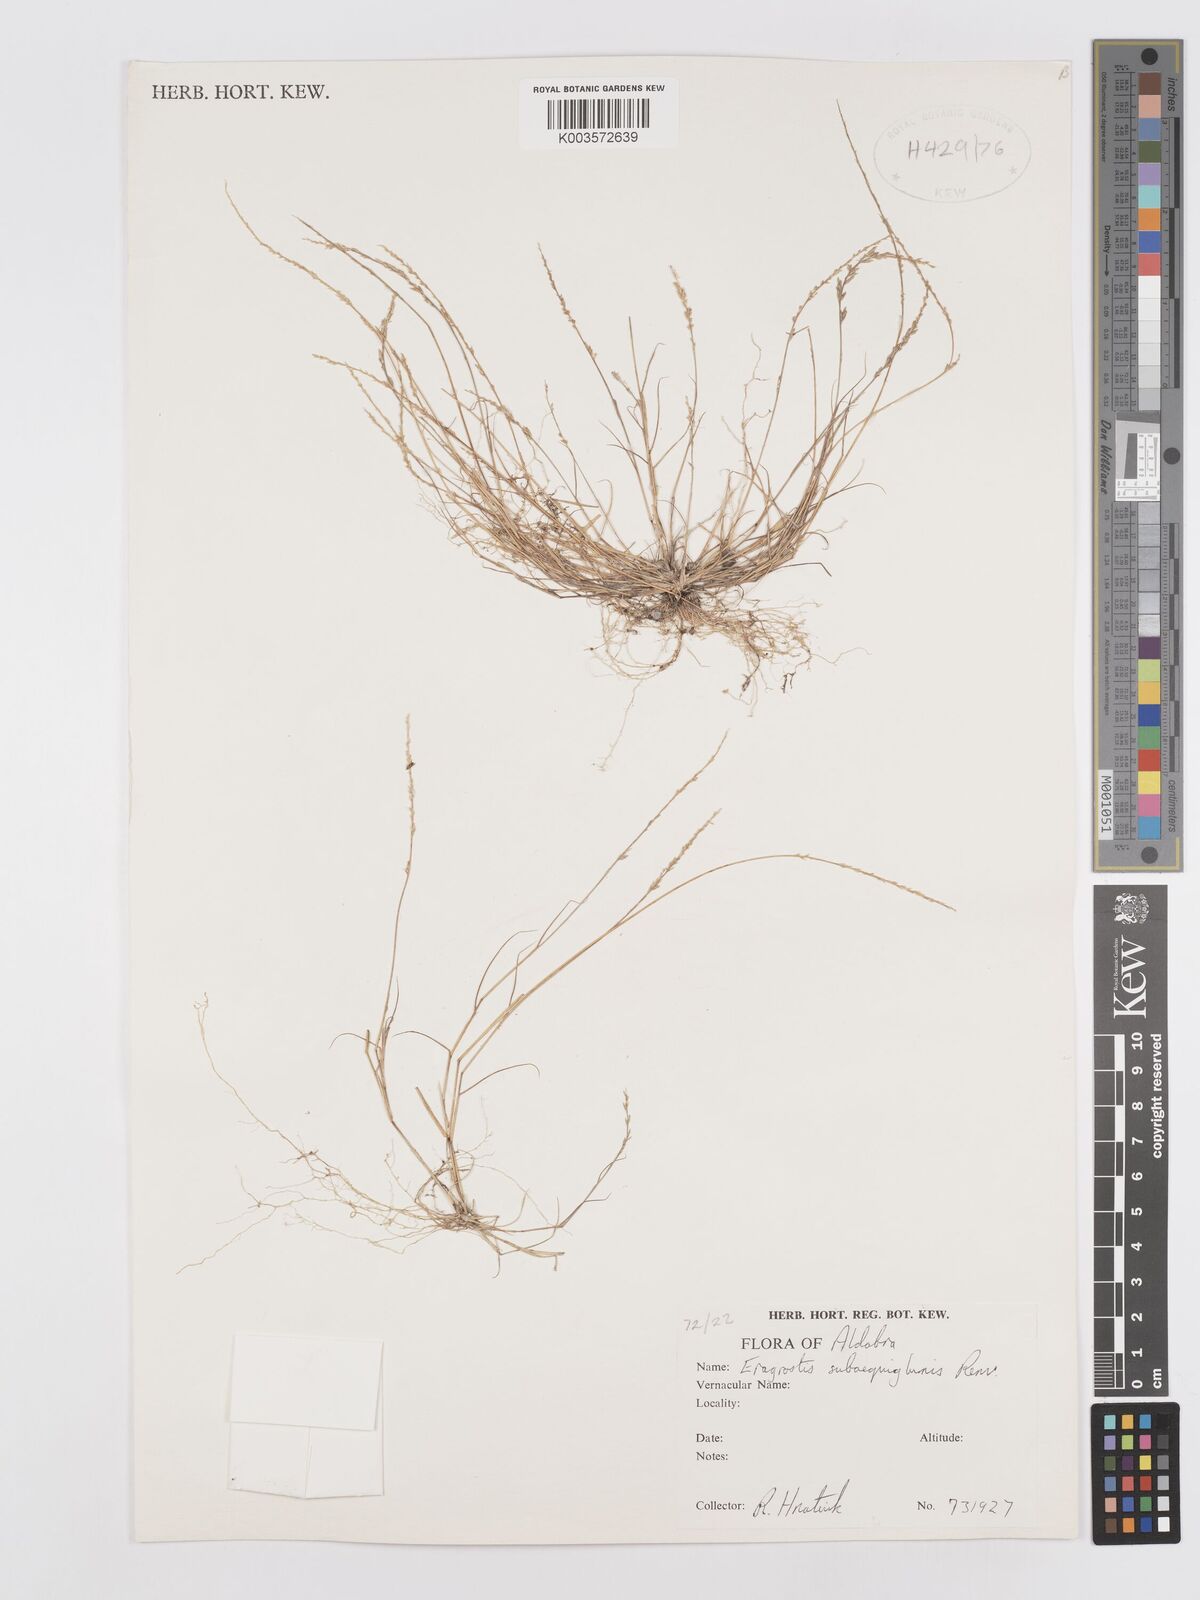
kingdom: Plantae
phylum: Tracheophyta
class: Liliopsida
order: Poales
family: Poaceae
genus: Eragrostis
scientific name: Eragrostis subaequiglumis
